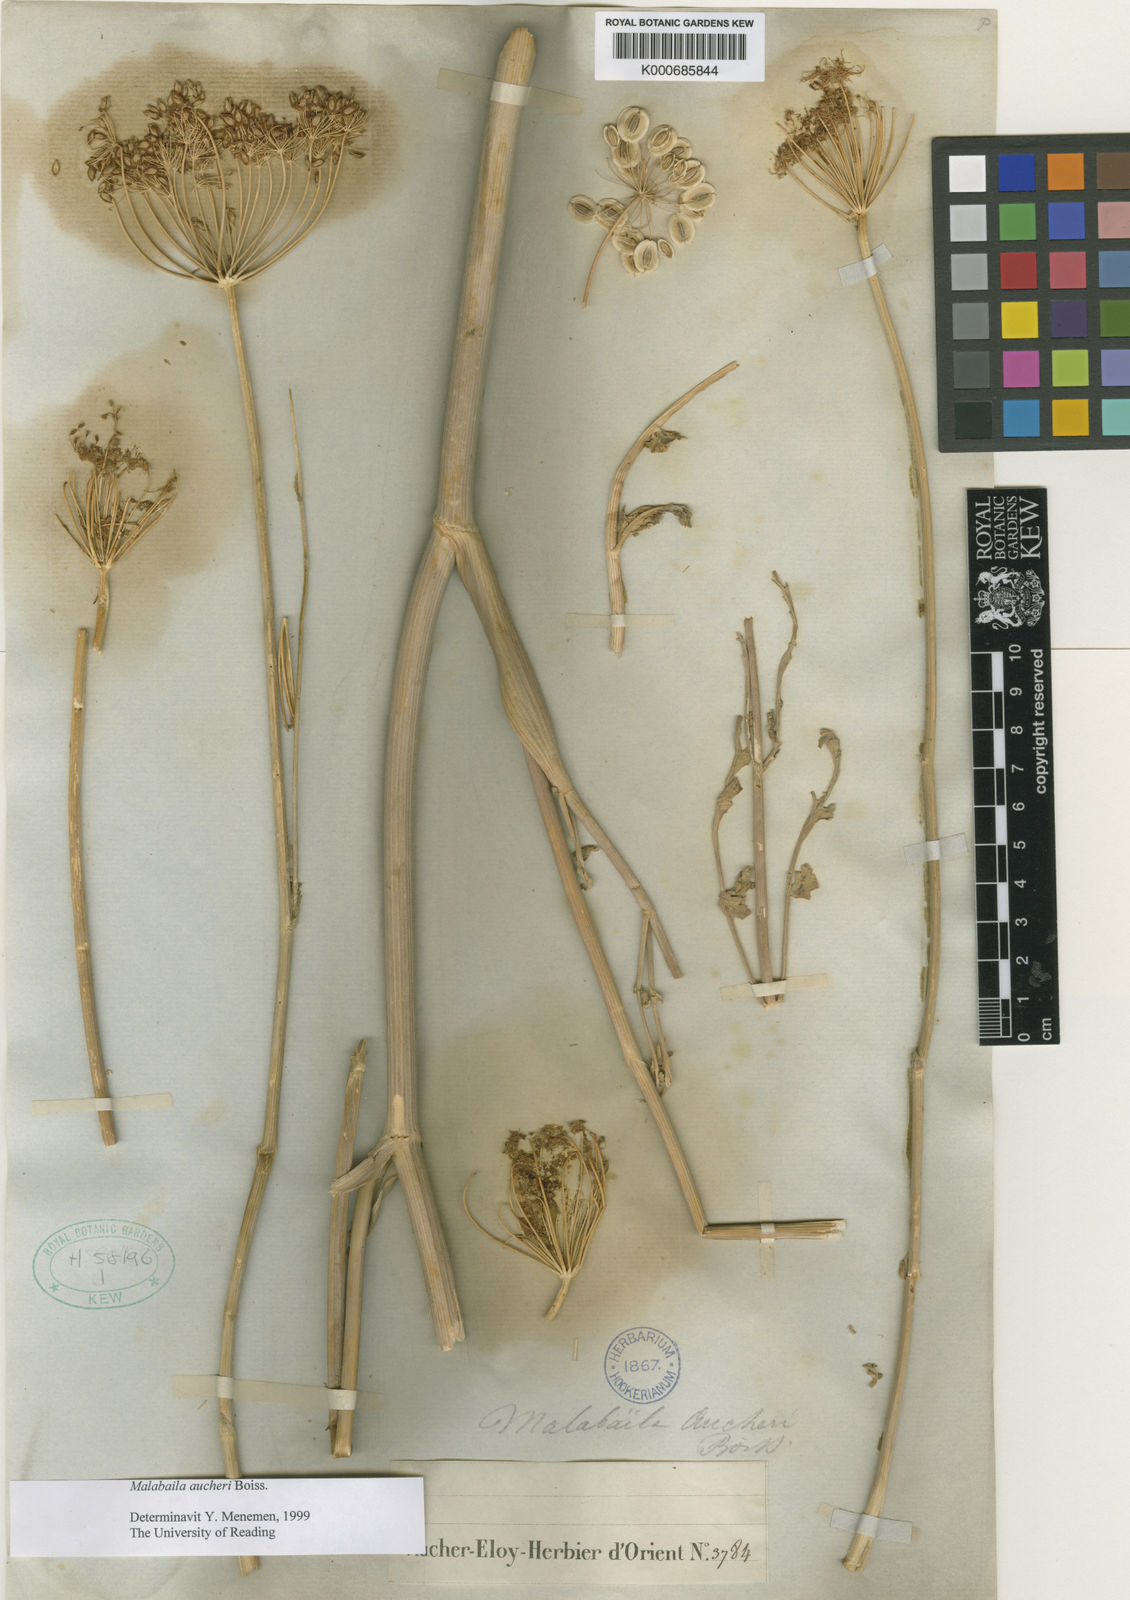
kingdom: Plantae
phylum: Tracheophyta
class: Magnoliopsida
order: Apiales
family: Apiaceae
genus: Leiotulus
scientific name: Leiotulus secacul
